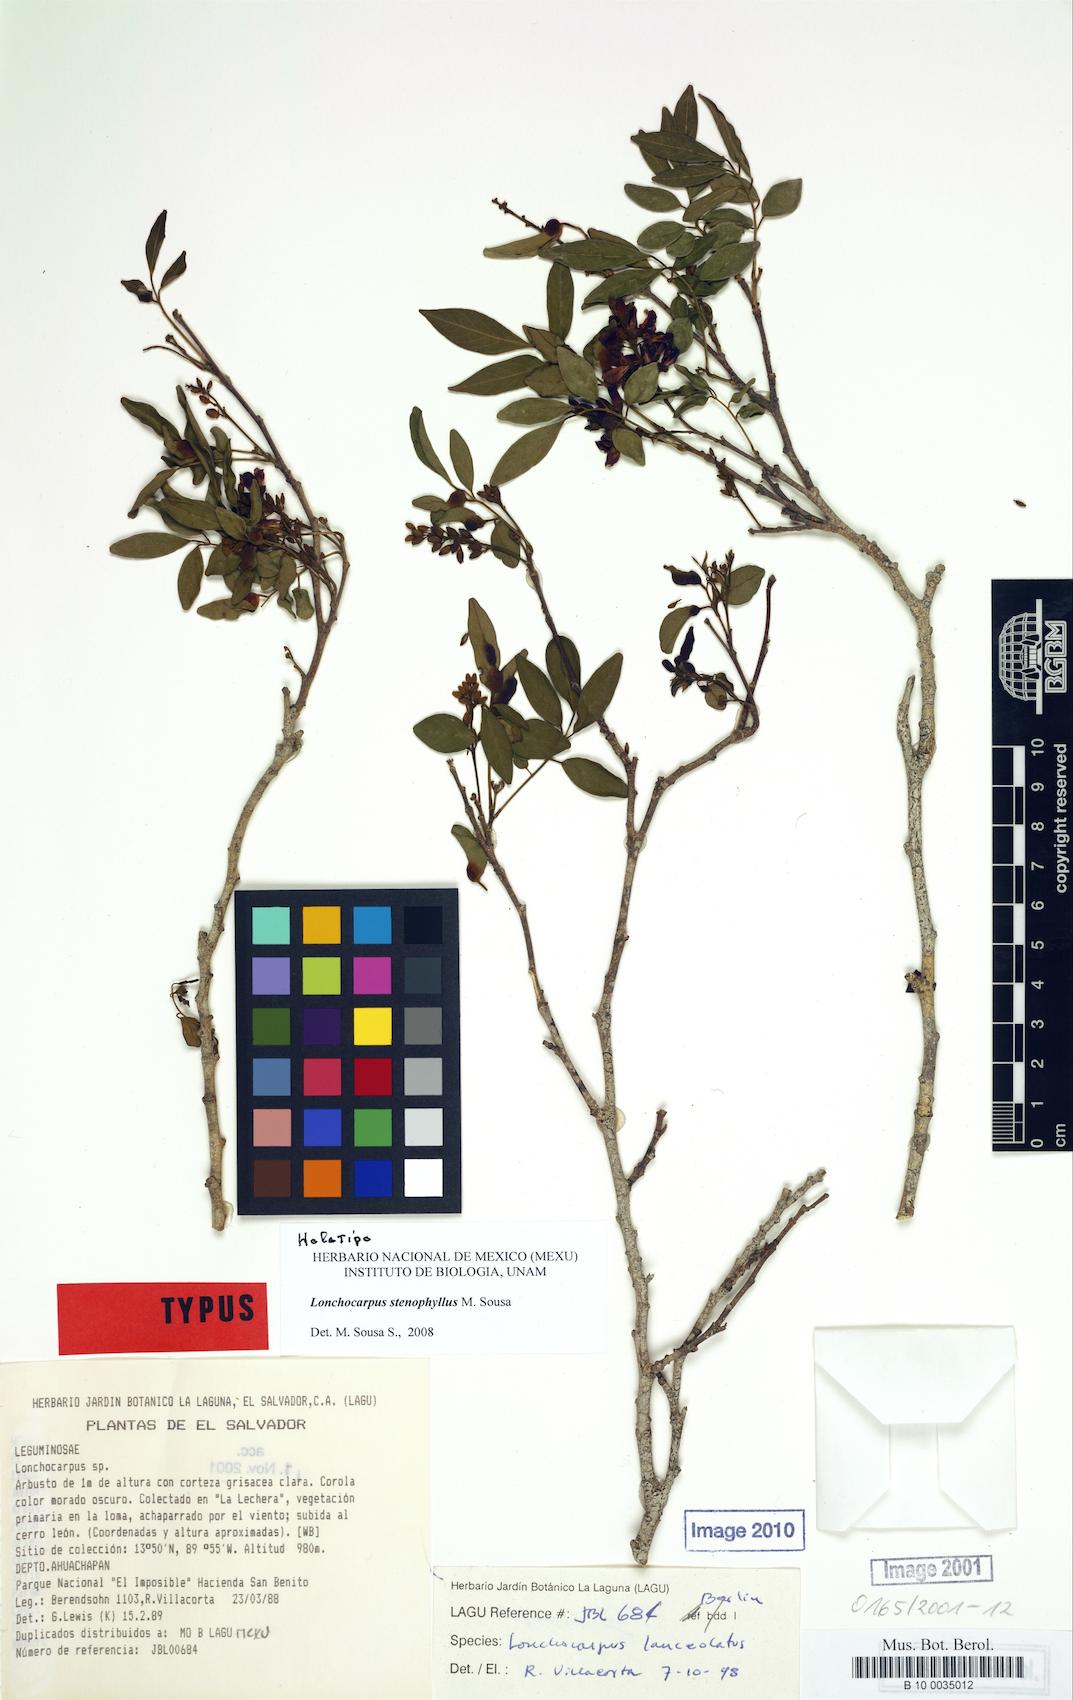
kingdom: Plantae
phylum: Tracheophyta
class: Magnoliopsida
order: Fabales
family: Fabaceae
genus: Lonchocarpus
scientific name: Lonchocarpus stenophyllus
